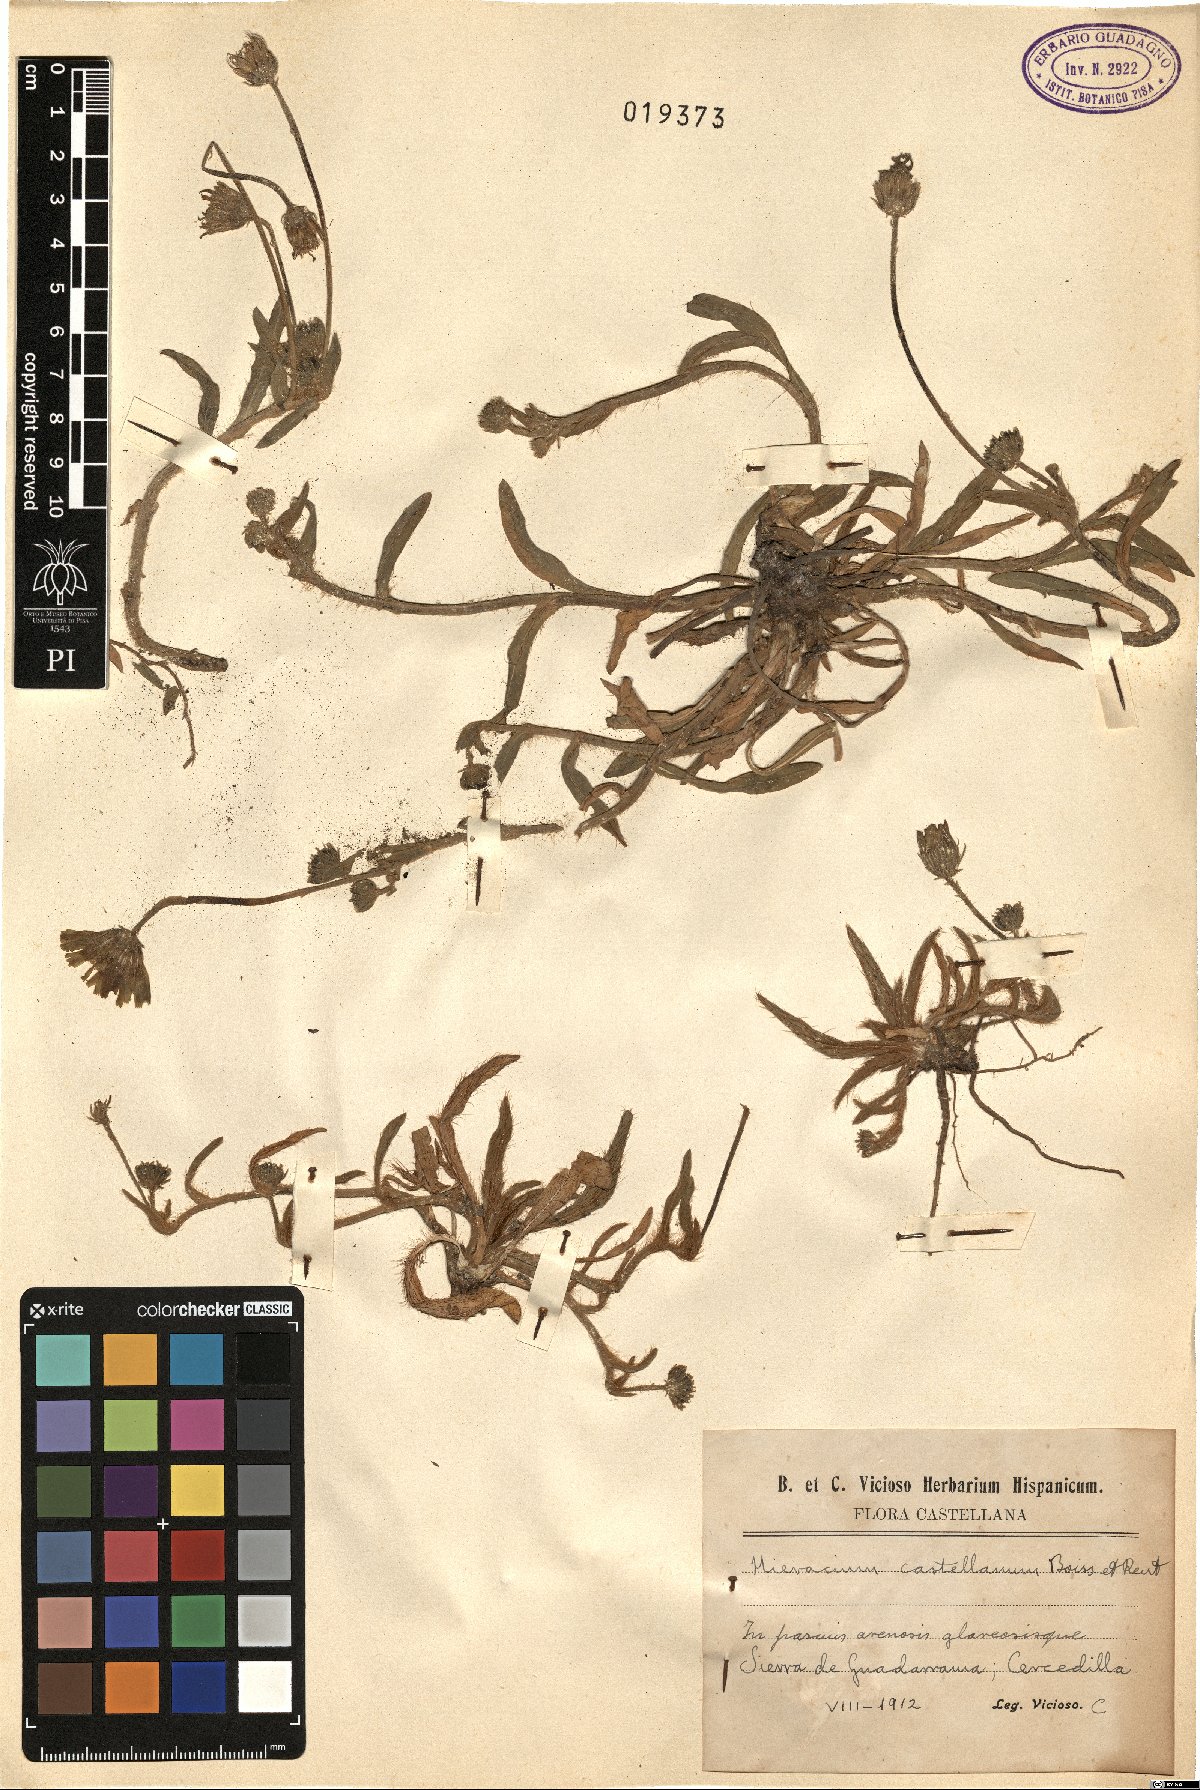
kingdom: Plantae
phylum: Tracheophyta
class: Magnoliopsida
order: Asterales
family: Asteraceae
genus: Pilosella
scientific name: Pilosella castellana
